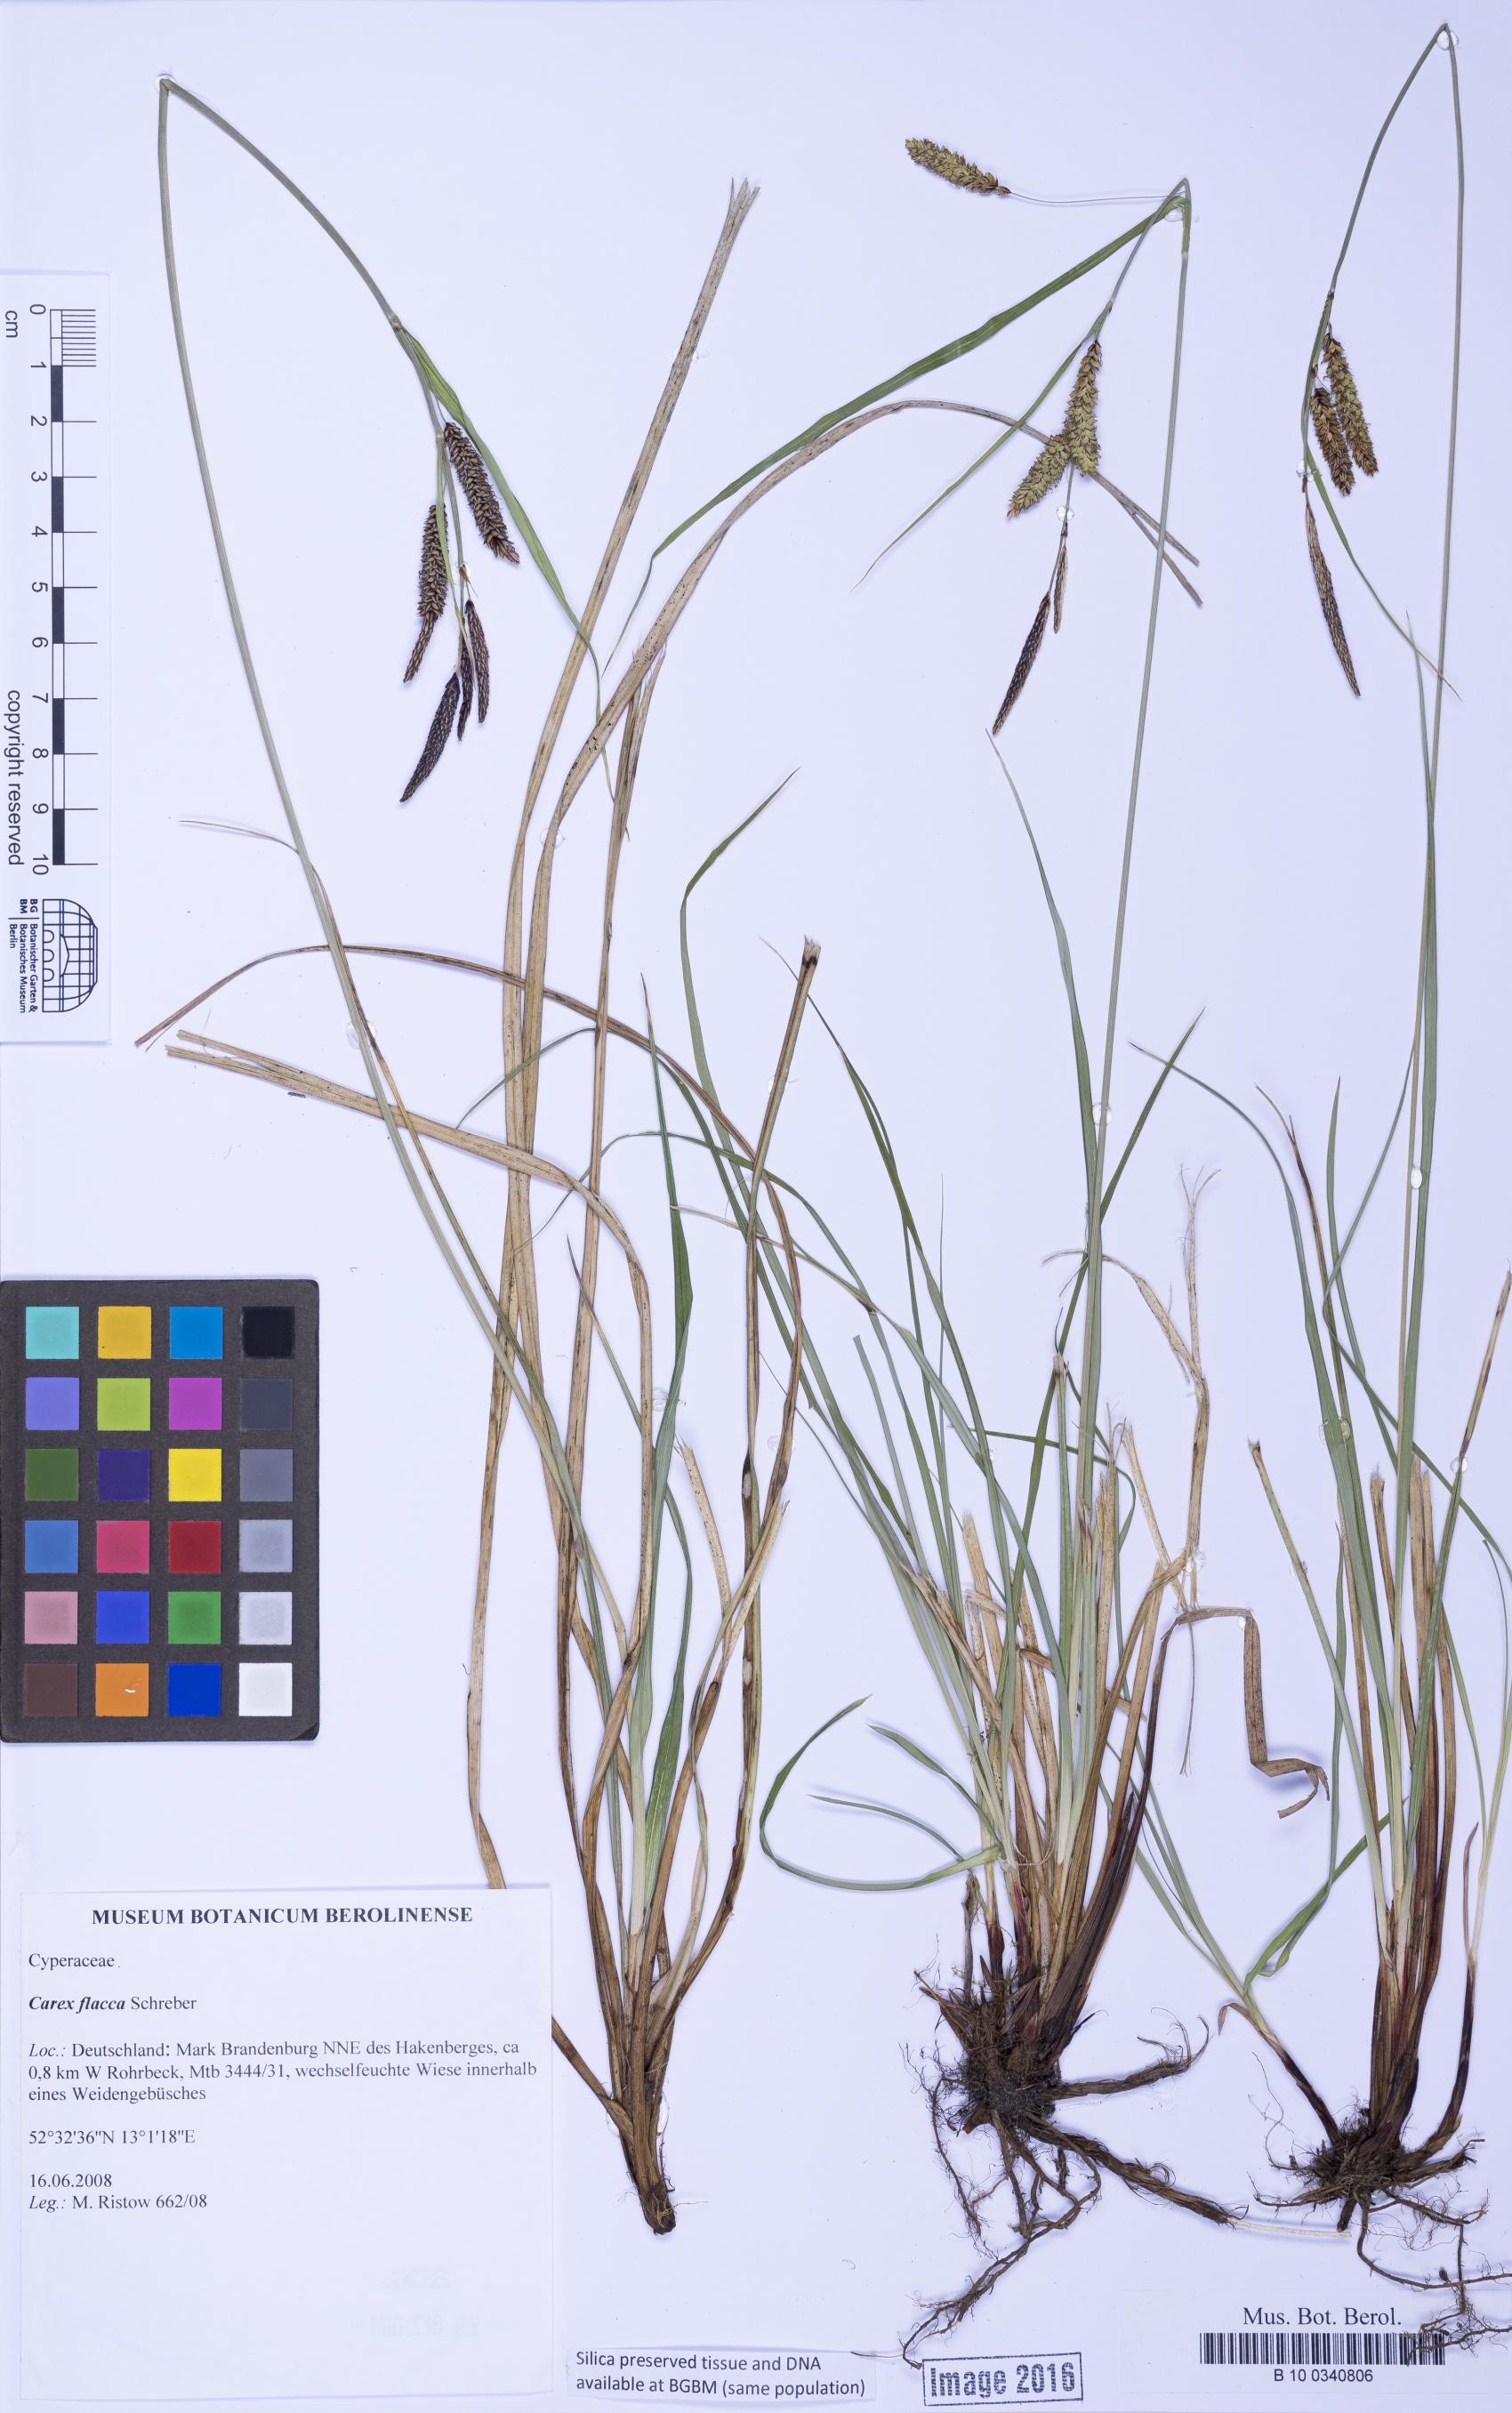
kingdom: Plantae
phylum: Tracheophyta
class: Liliopsida
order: Poales
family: Cyperaceae
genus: Carex
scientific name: Carex flacca
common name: Glaucous sedge
